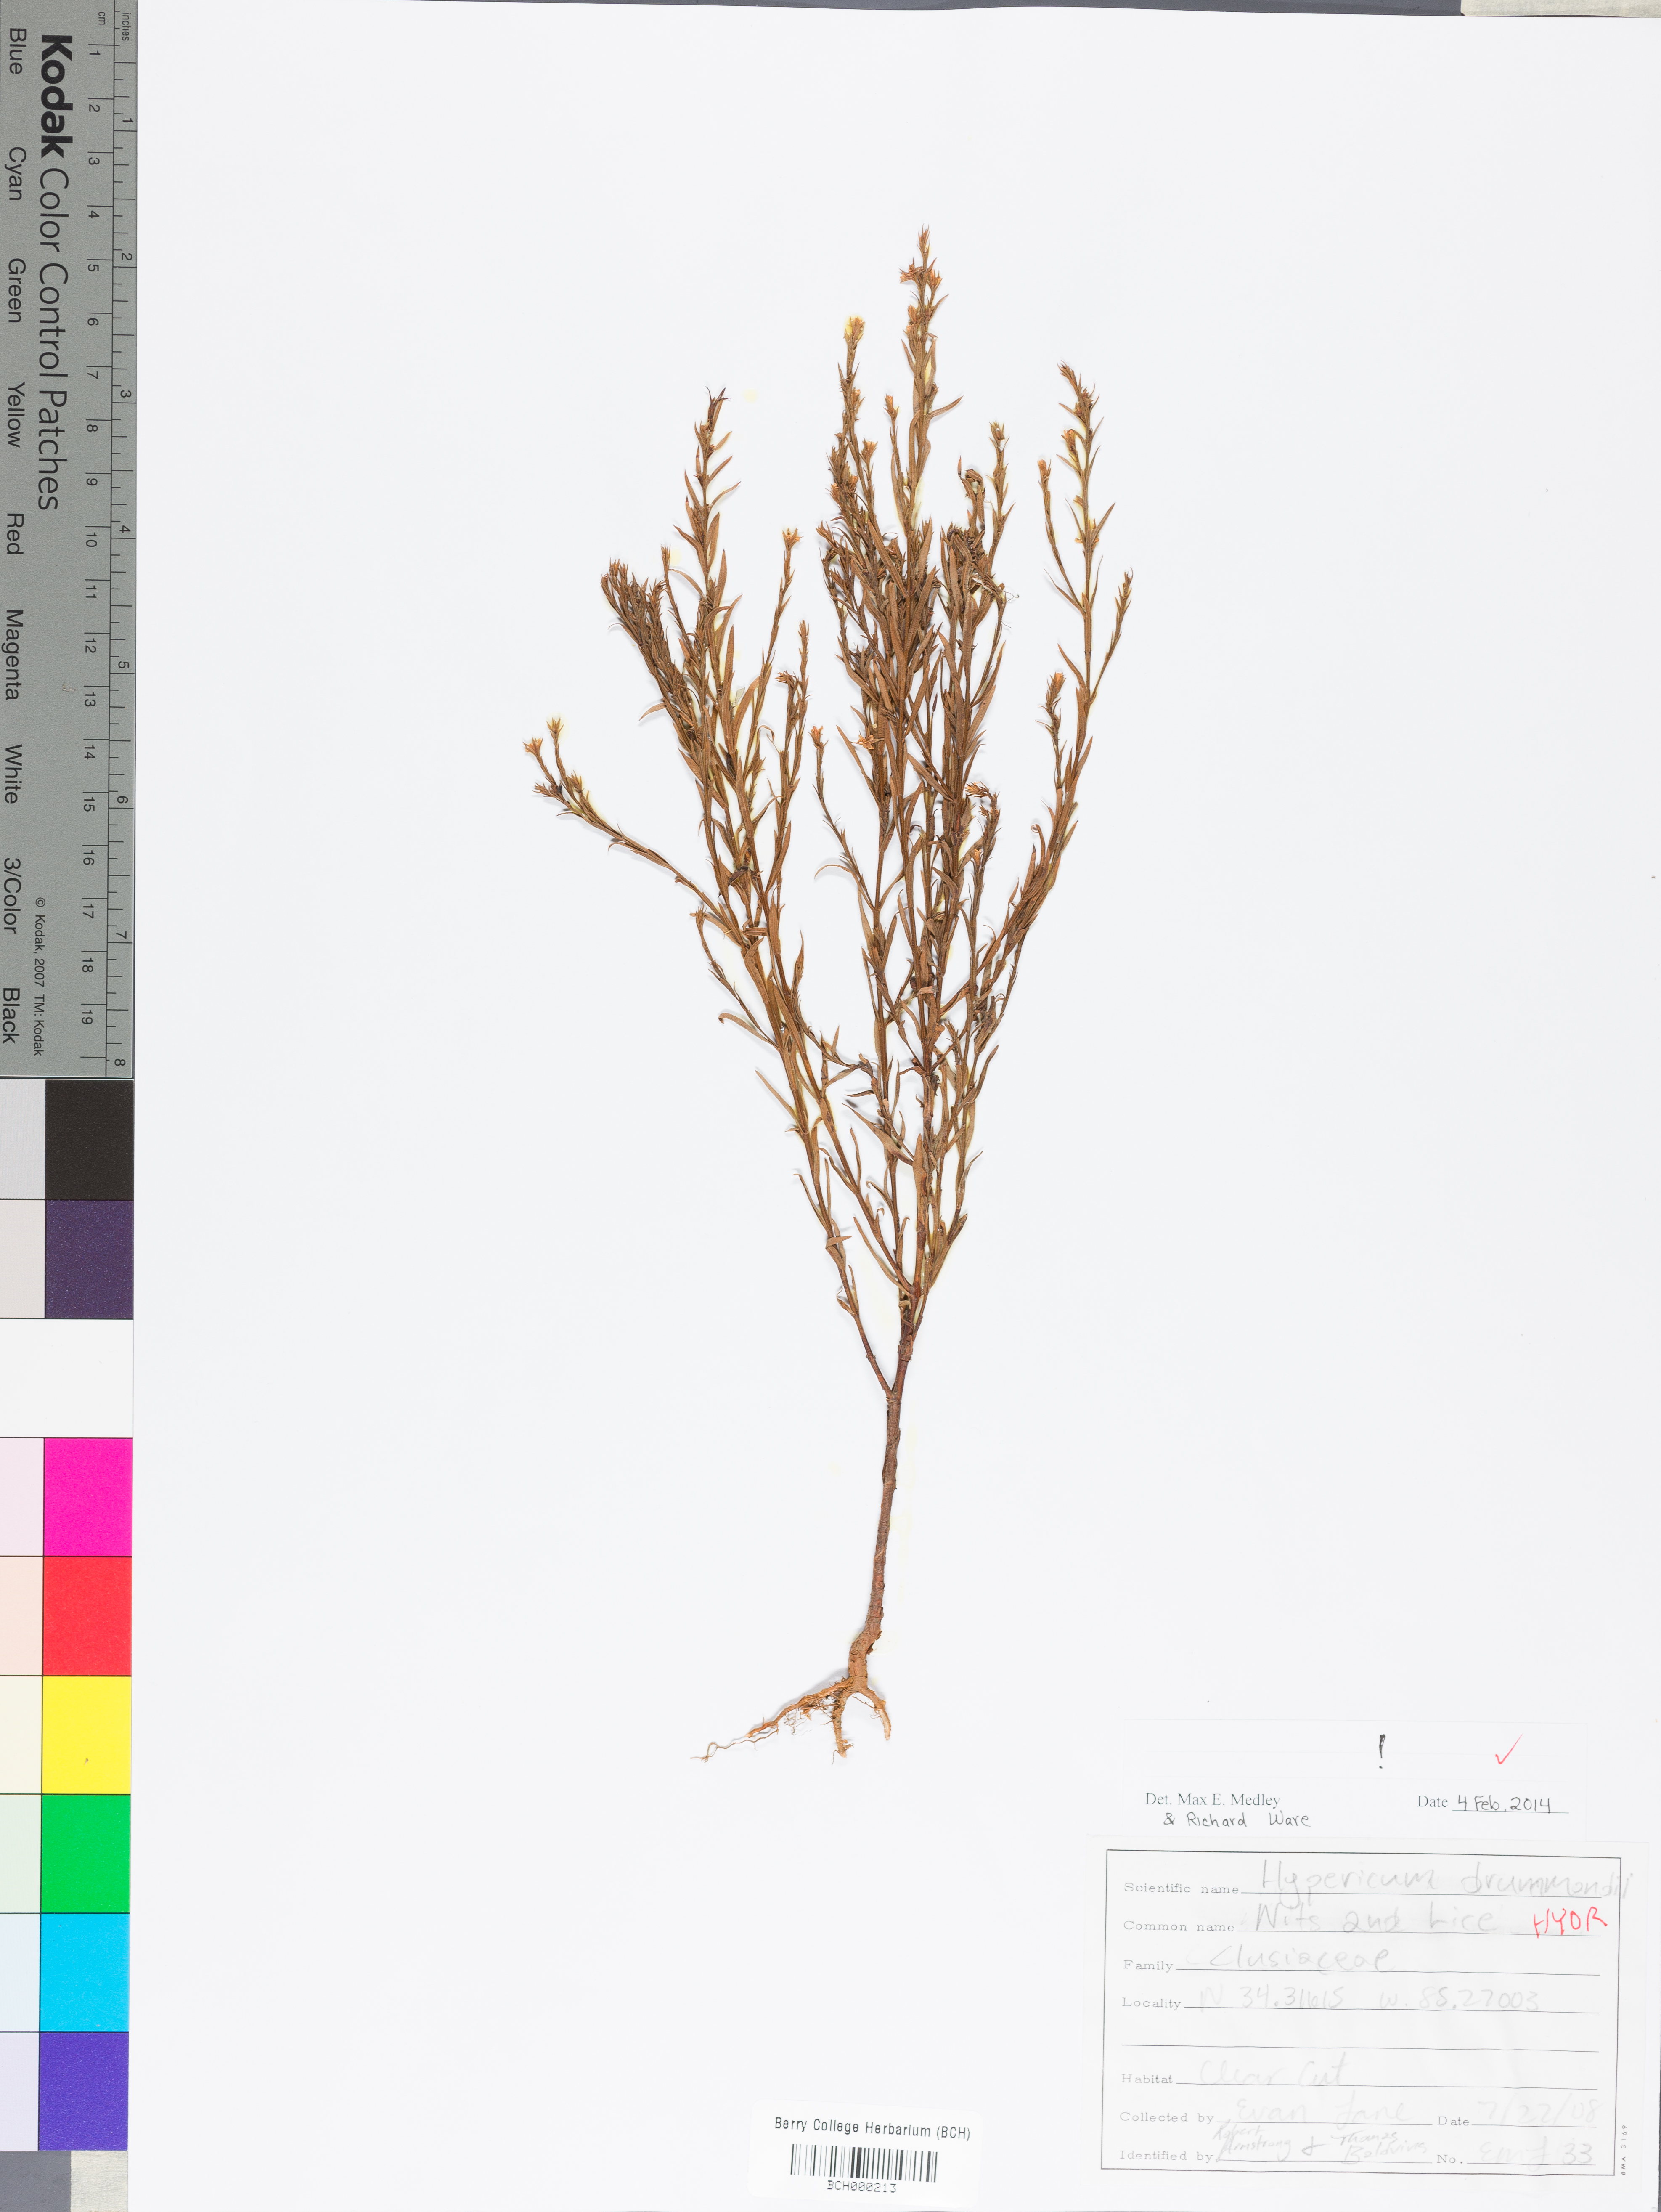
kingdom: Plantae
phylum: Tracheophyta
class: Magnoliopsida
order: Lamiales
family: Lamiaceae
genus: Pycnanthemum
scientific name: Pycnanthemum loomisii
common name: Loomis's mountain-mint
